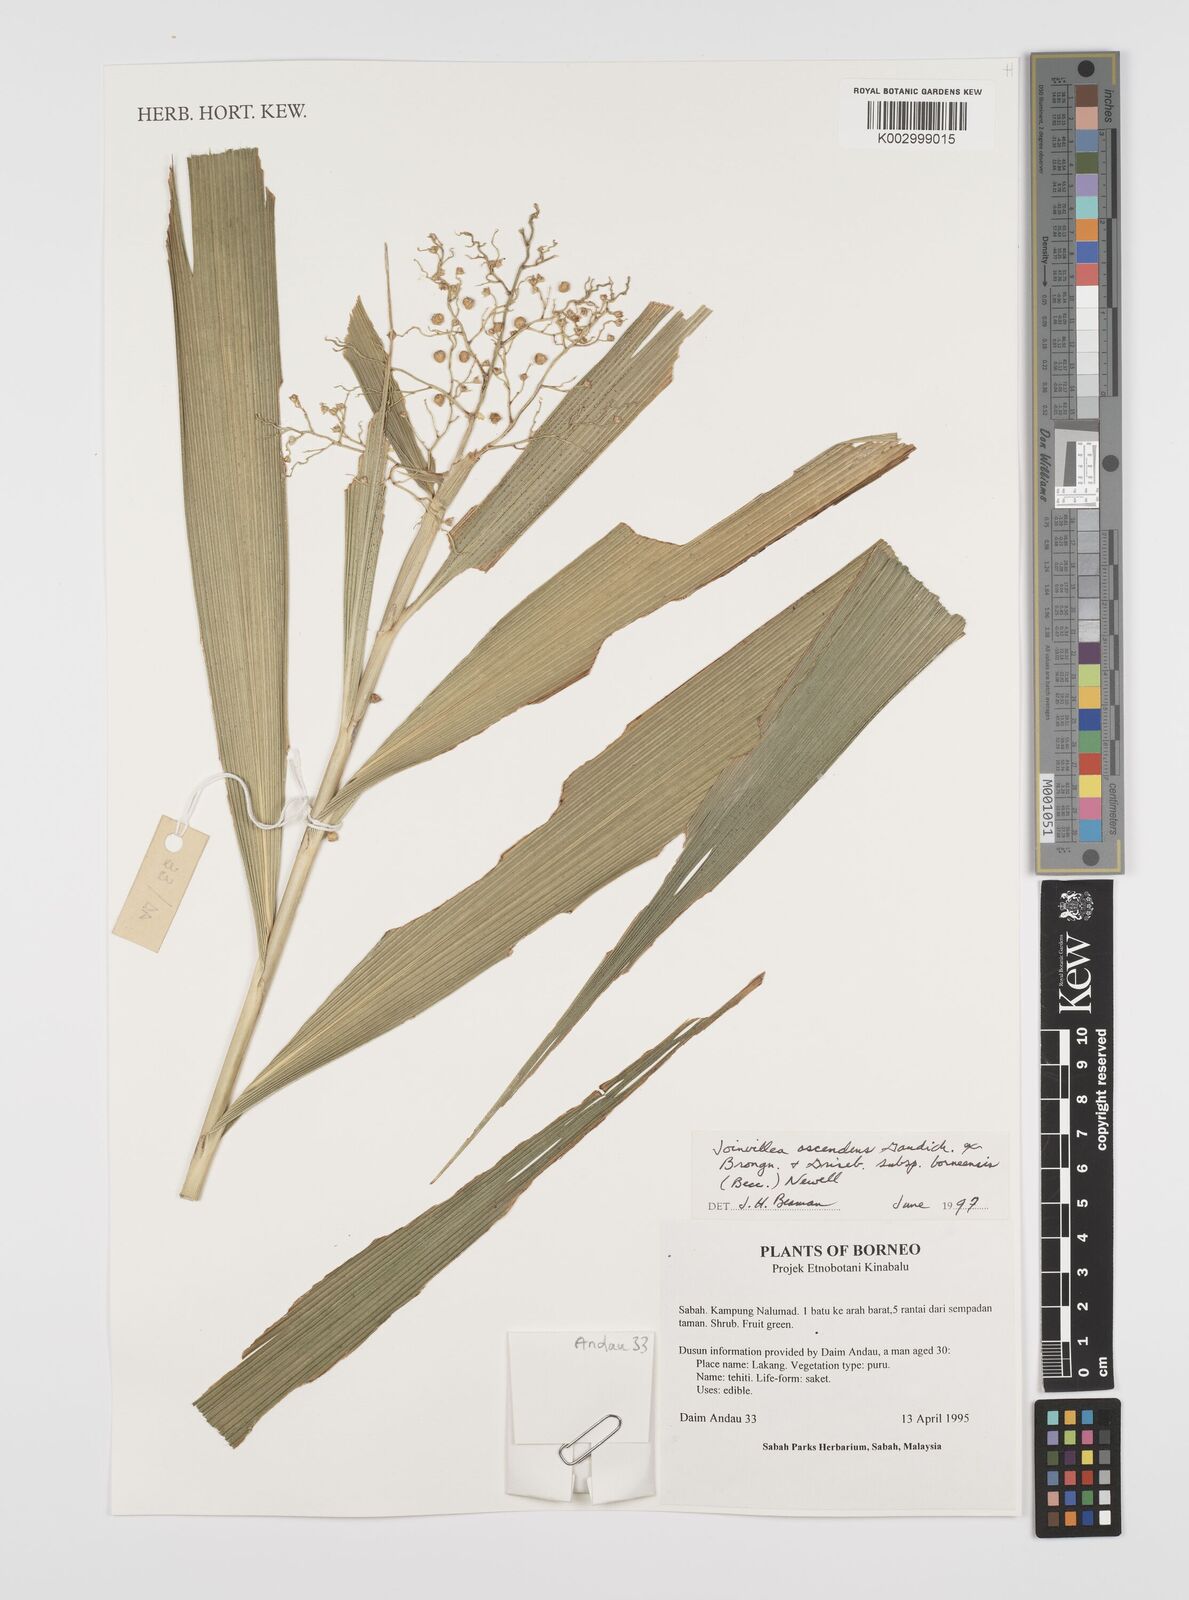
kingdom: Plantae
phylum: Tracheophyta
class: Liliopsida
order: Poales
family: Joinvilleaceae
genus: Joinvillea
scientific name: Joinvillea borneensis
